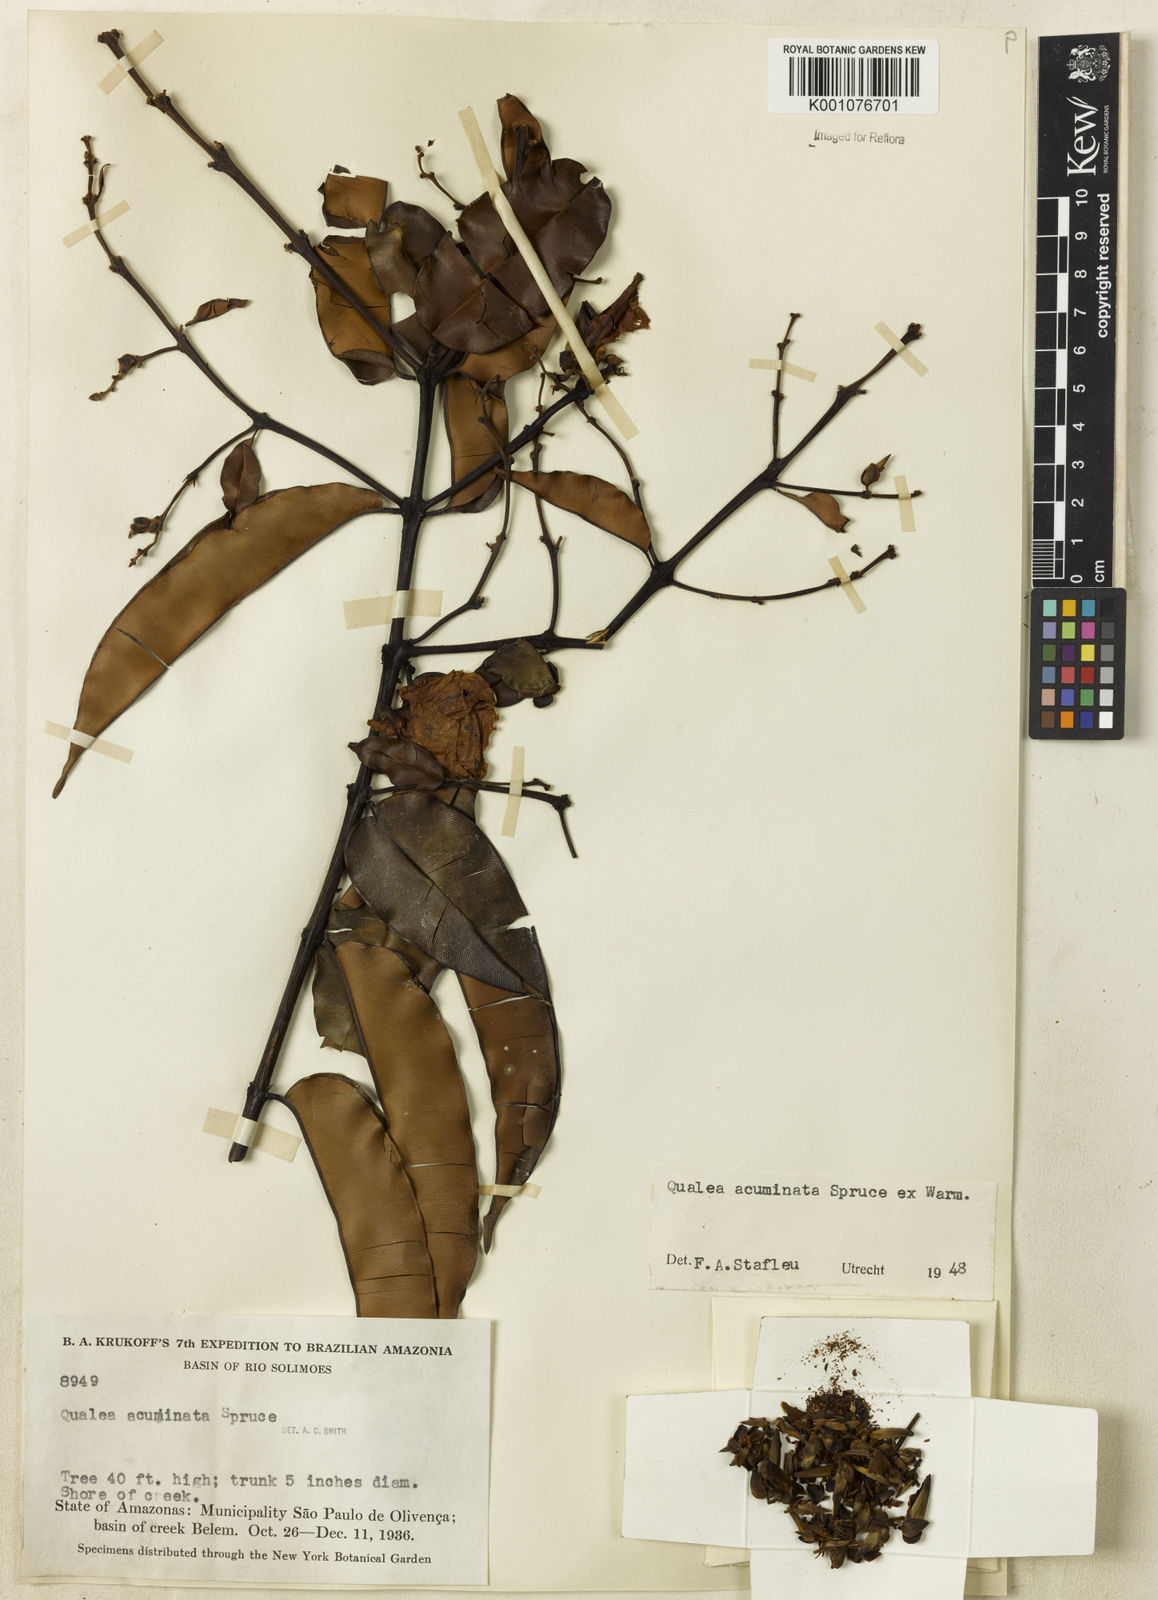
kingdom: Plantae
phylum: Tracheophyta
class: Magnoliopsida
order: Myrtales
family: Vochysiaceae
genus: Qualea
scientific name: Qualea acuminata
